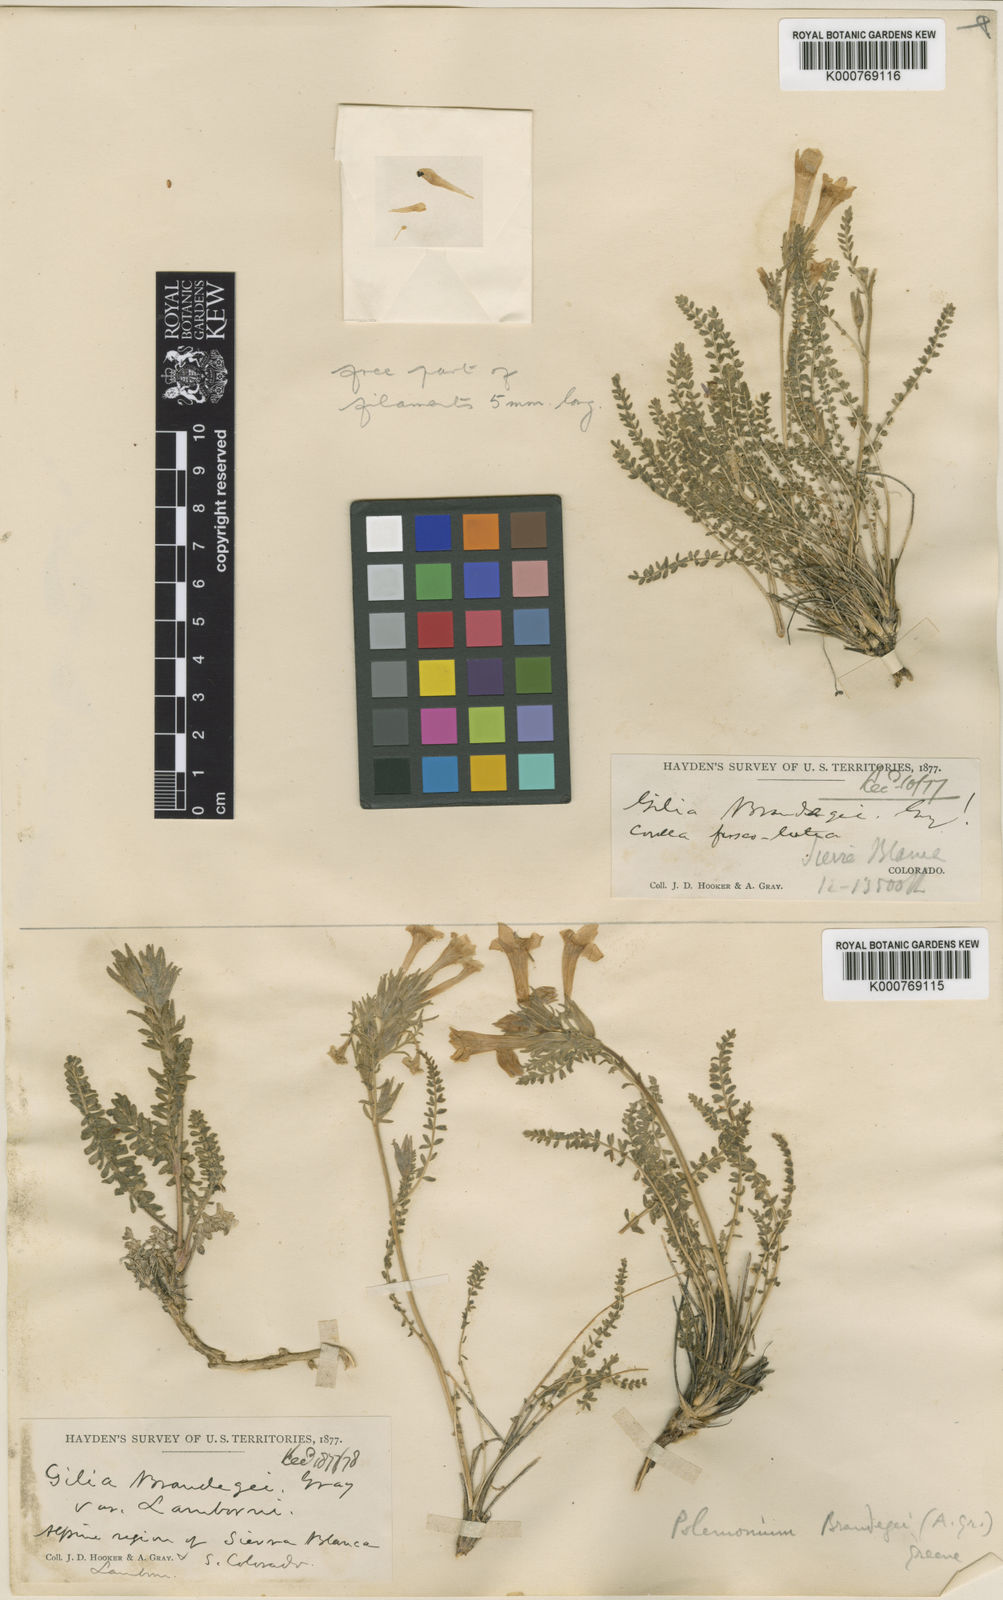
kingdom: Plantae
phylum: Tracheophyta
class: Magnoliopsida
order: Ericales
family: Polemoniaceae
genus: Polemonium
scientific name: Polemonium viscosum
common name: Skunk jacob's-ladder
